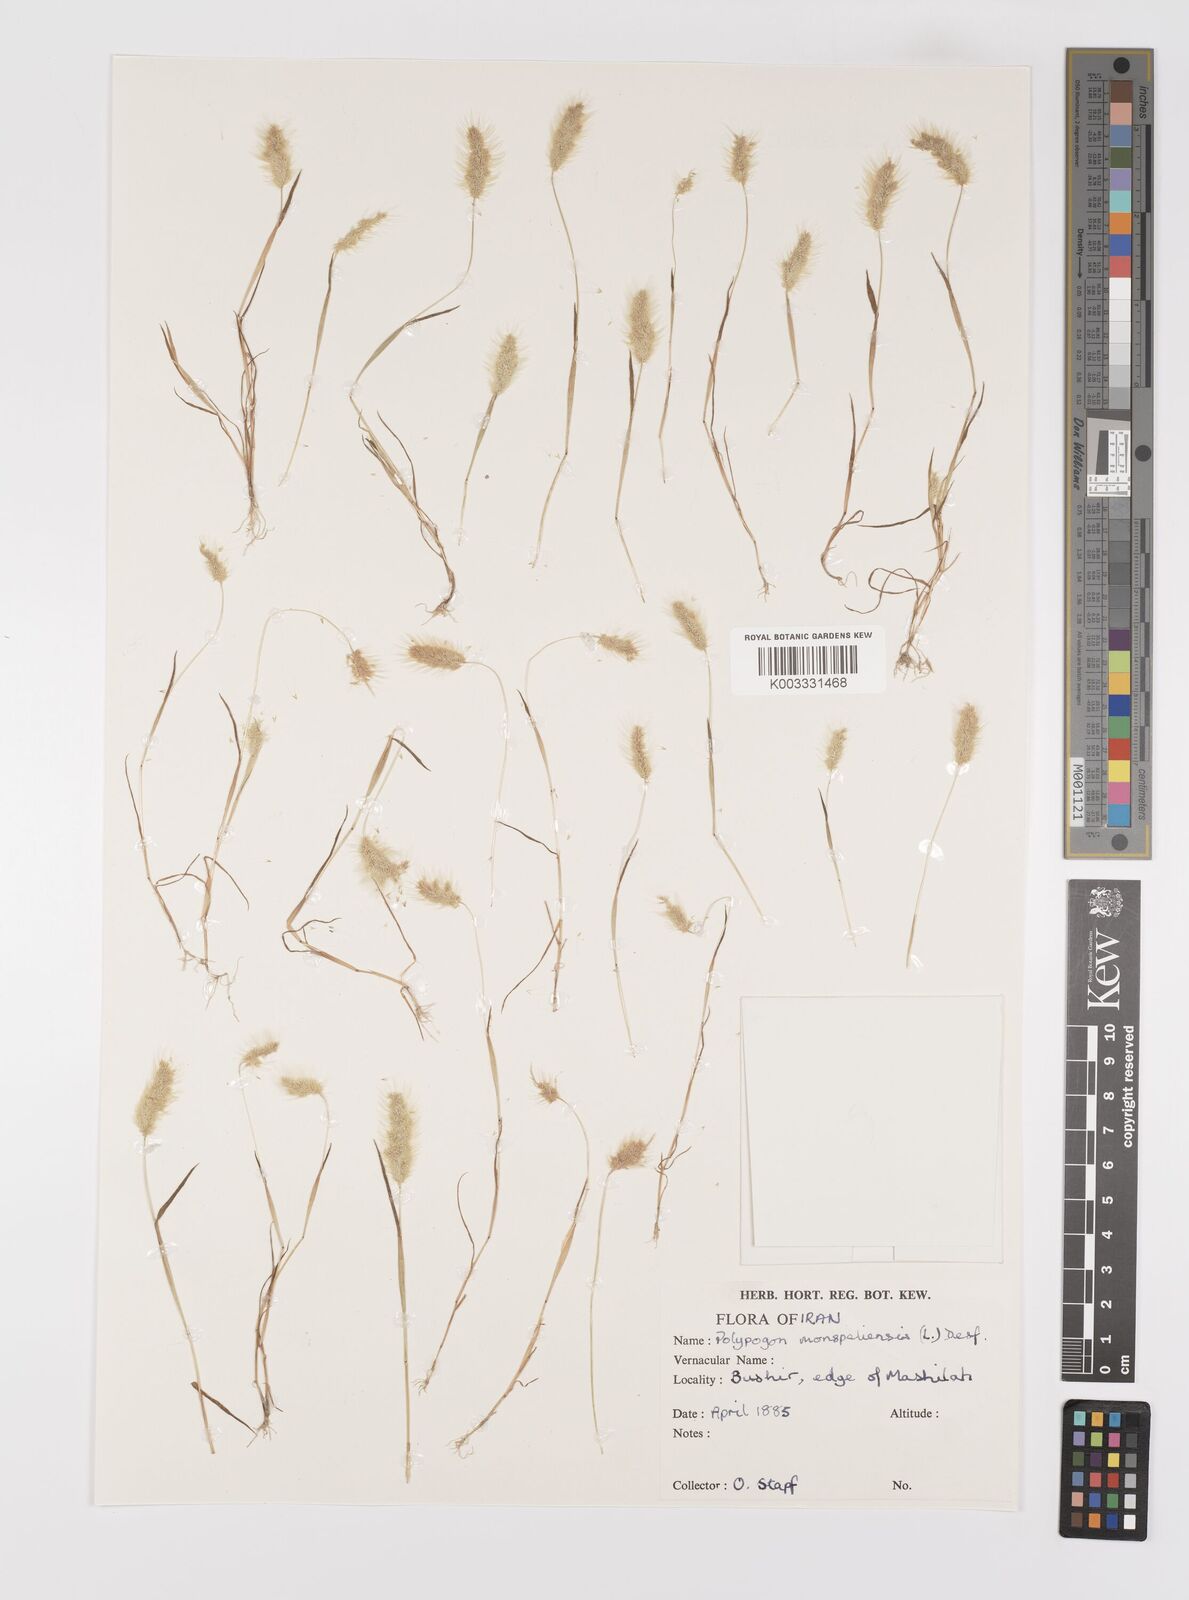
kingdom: Plantae
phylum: Tracheophyta
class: Liliopsida
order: Poales
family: Poaceae
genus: Polypogon
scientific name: Polypogon maritimus
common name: Mediterranean rabbitsfoot grass
